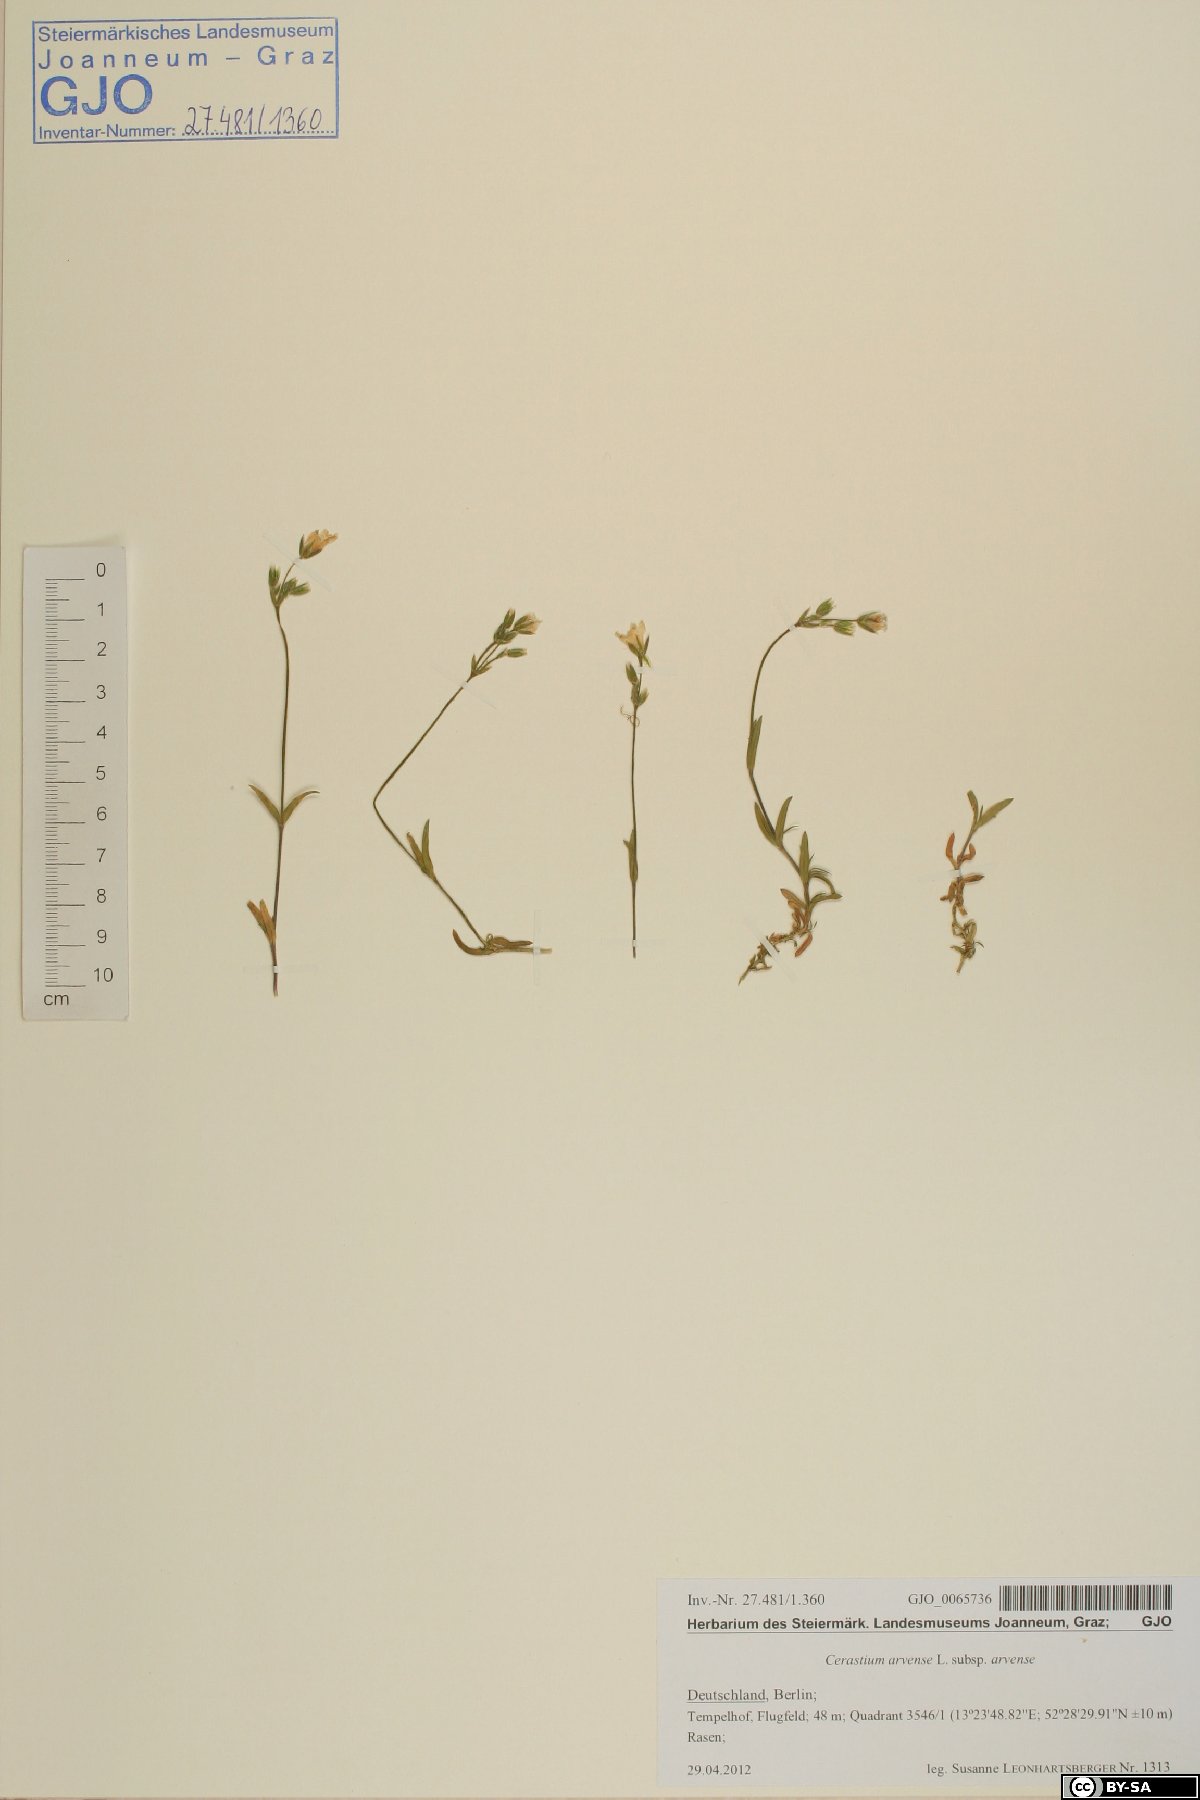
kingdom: Plantae
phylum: Tracheophyta
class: Magnoliopsida
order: Caryophyllales
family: Caryophyllaceae
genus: Cerastium
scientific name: Cerastium arvense
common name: Field mouse-ear
